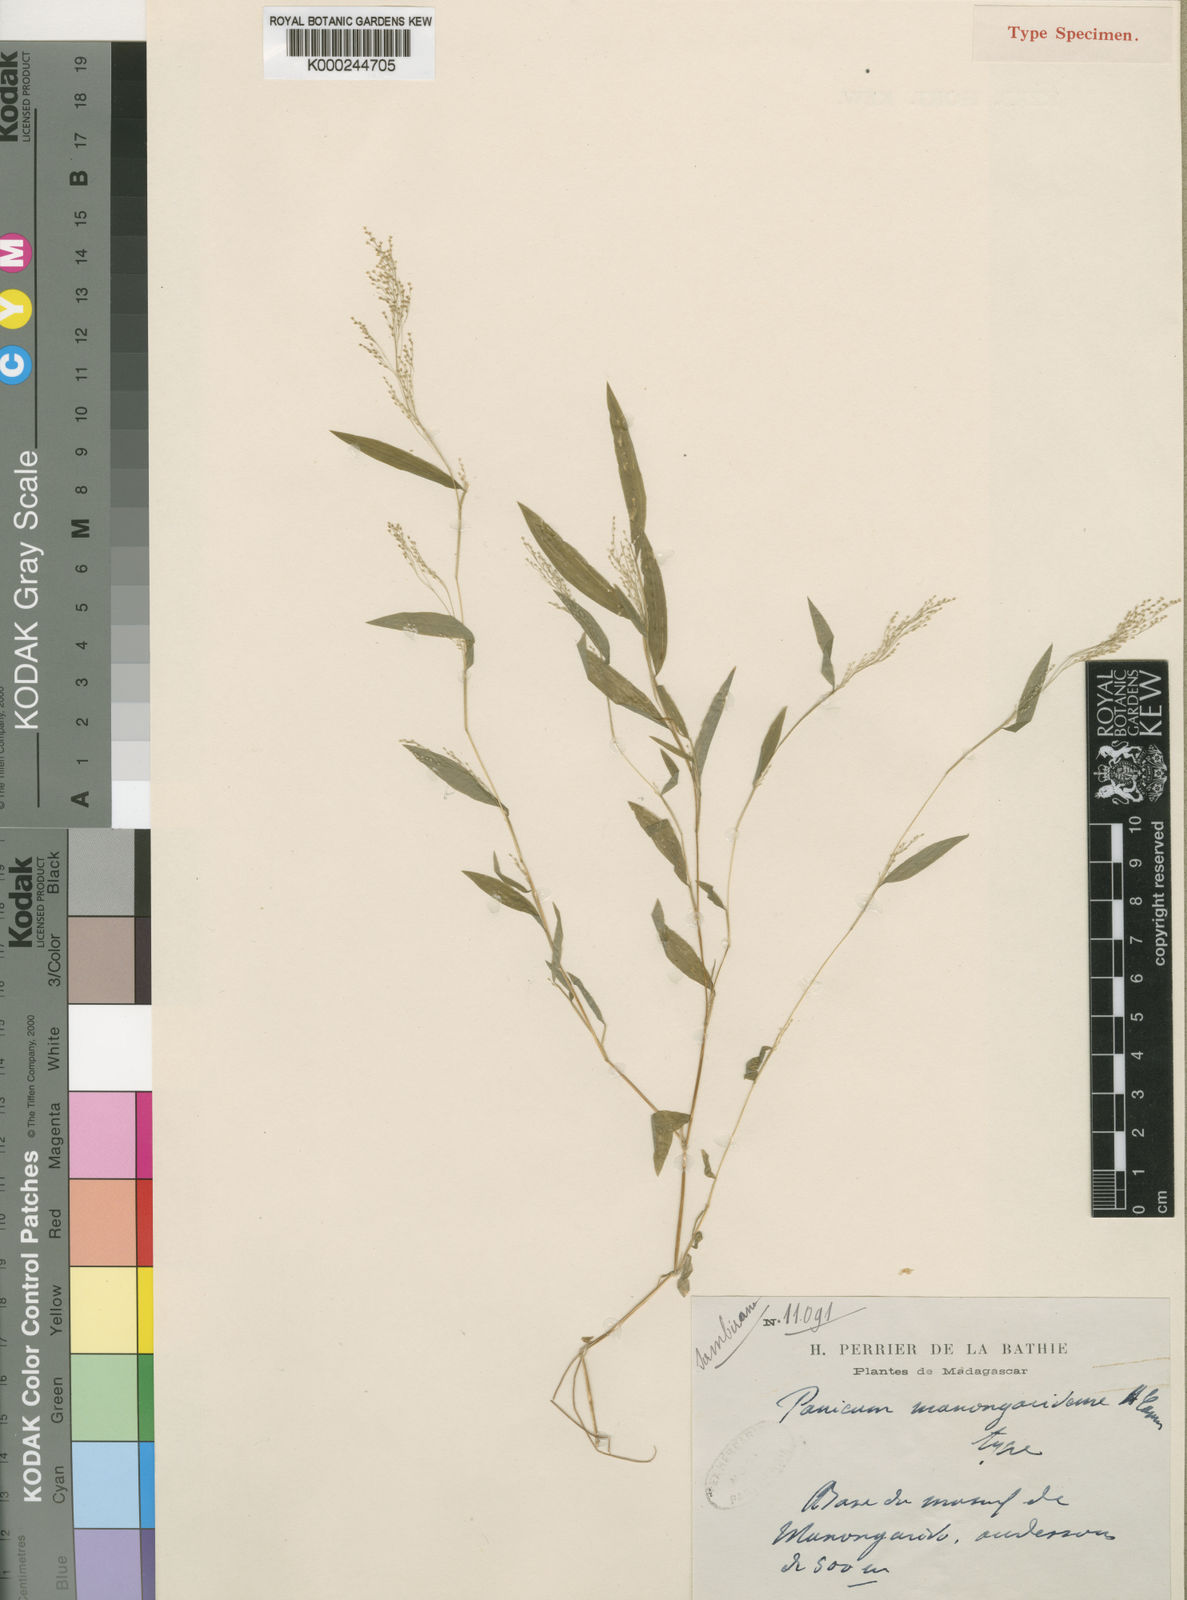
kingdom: Plantae
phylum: Tracheophyta
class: Liliopsida
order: Poales
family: Poaceae
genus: Panicum
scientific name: Panicum manongarivense
